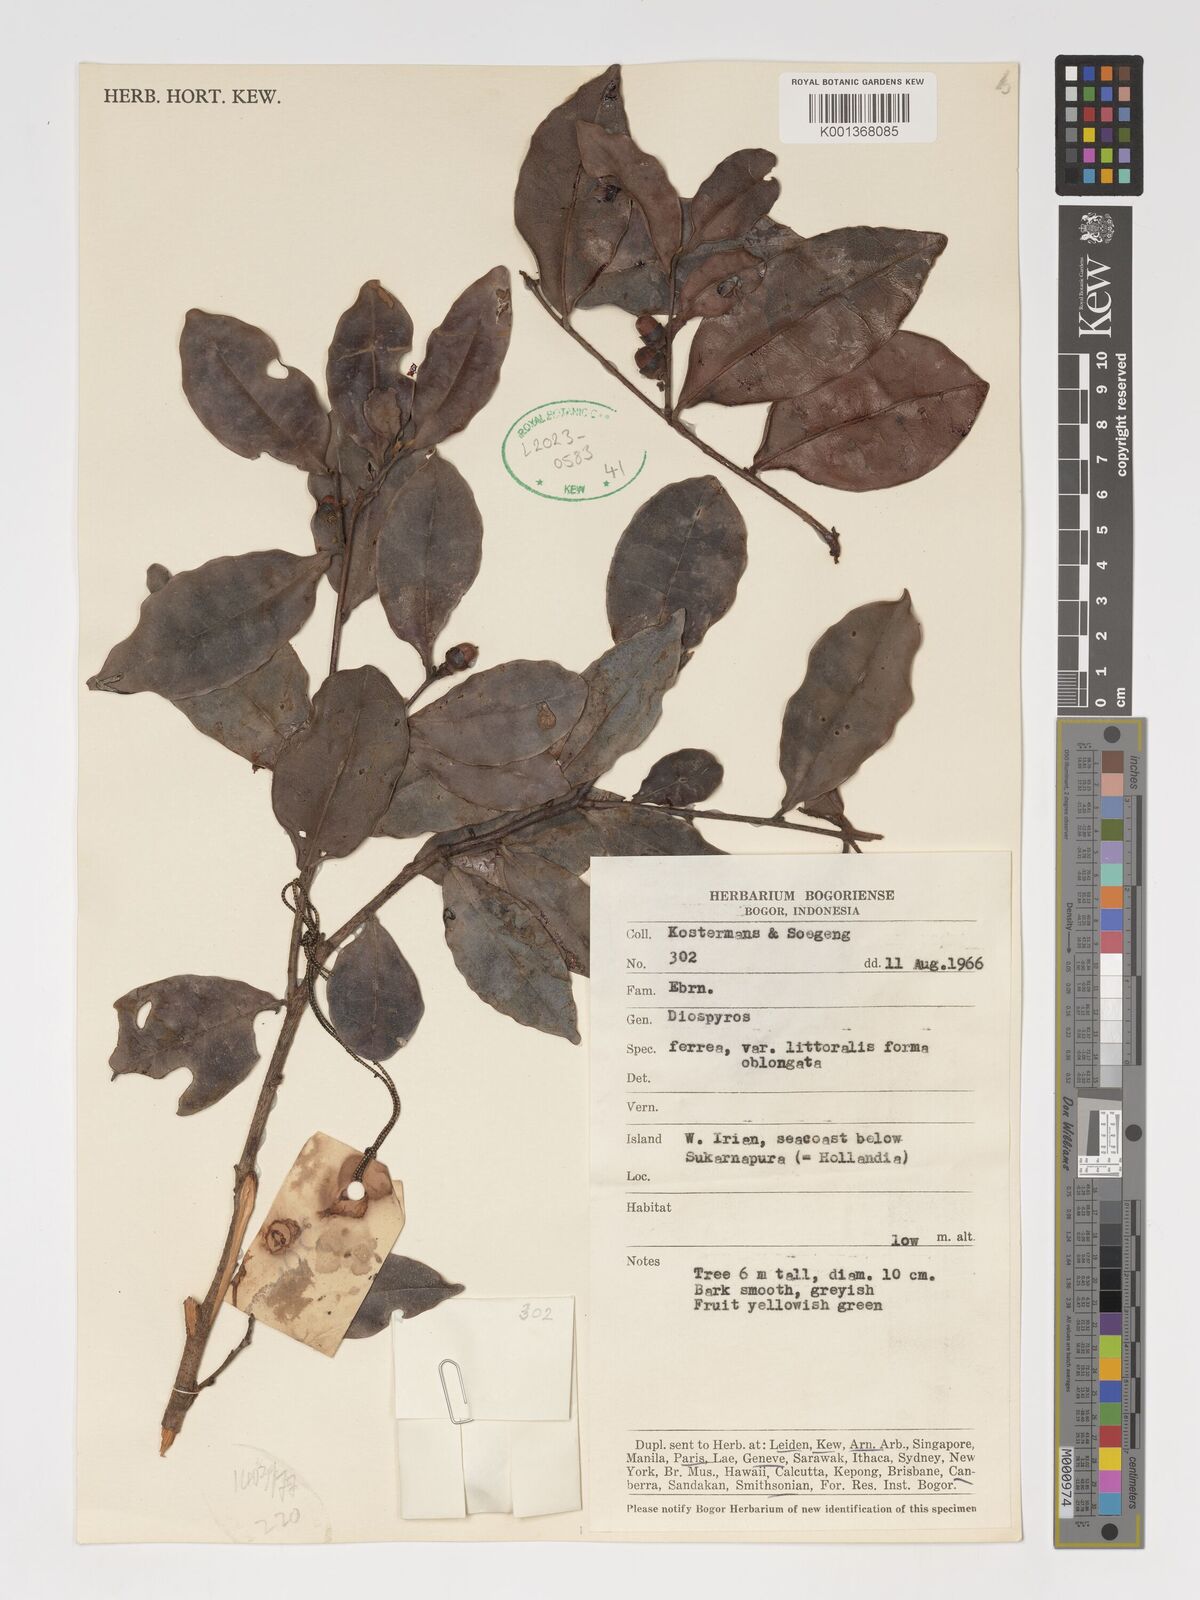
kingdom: Plantae
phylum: Tracheophyta
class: Magnoliopsida
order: Ericales
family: Ebenaceae
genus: Diospyros
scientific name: Diospyros
